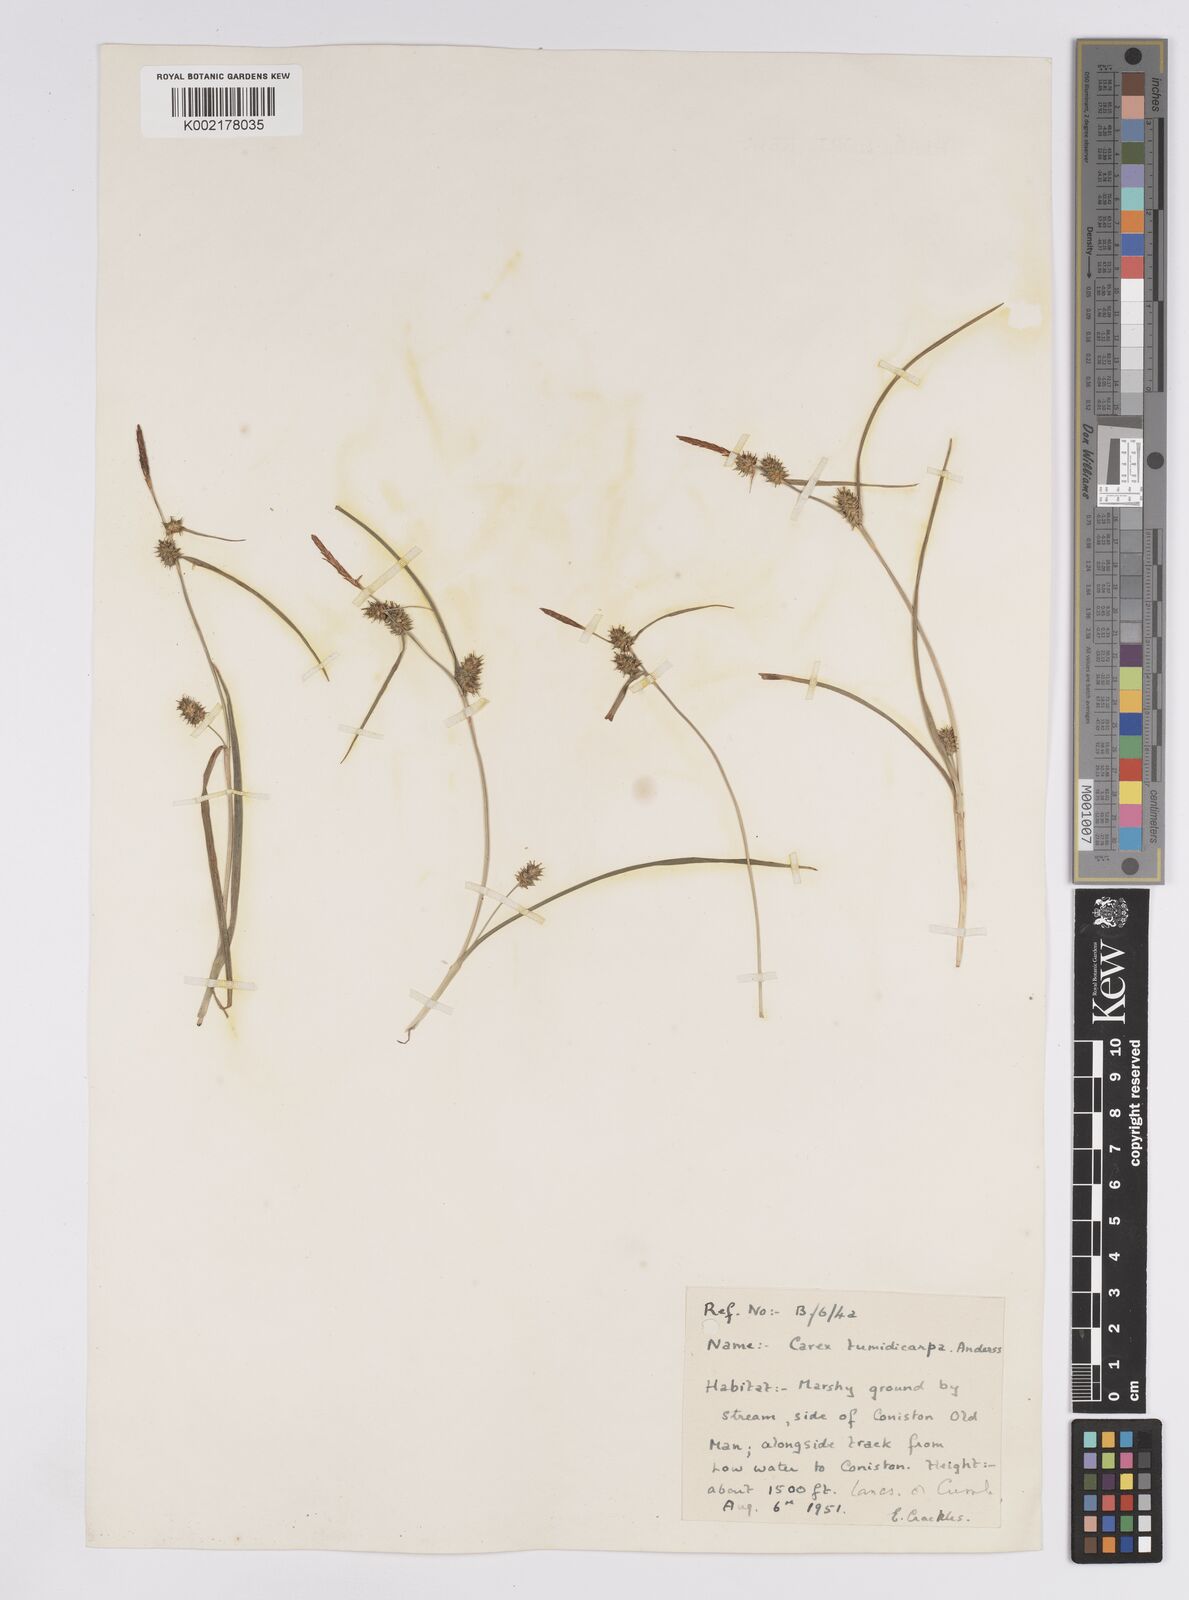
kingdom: Plantae
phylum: Tracheophyta
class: Liliopsida
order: Poales
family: Cyperaceae
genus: Carex
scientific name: Carex demissa
